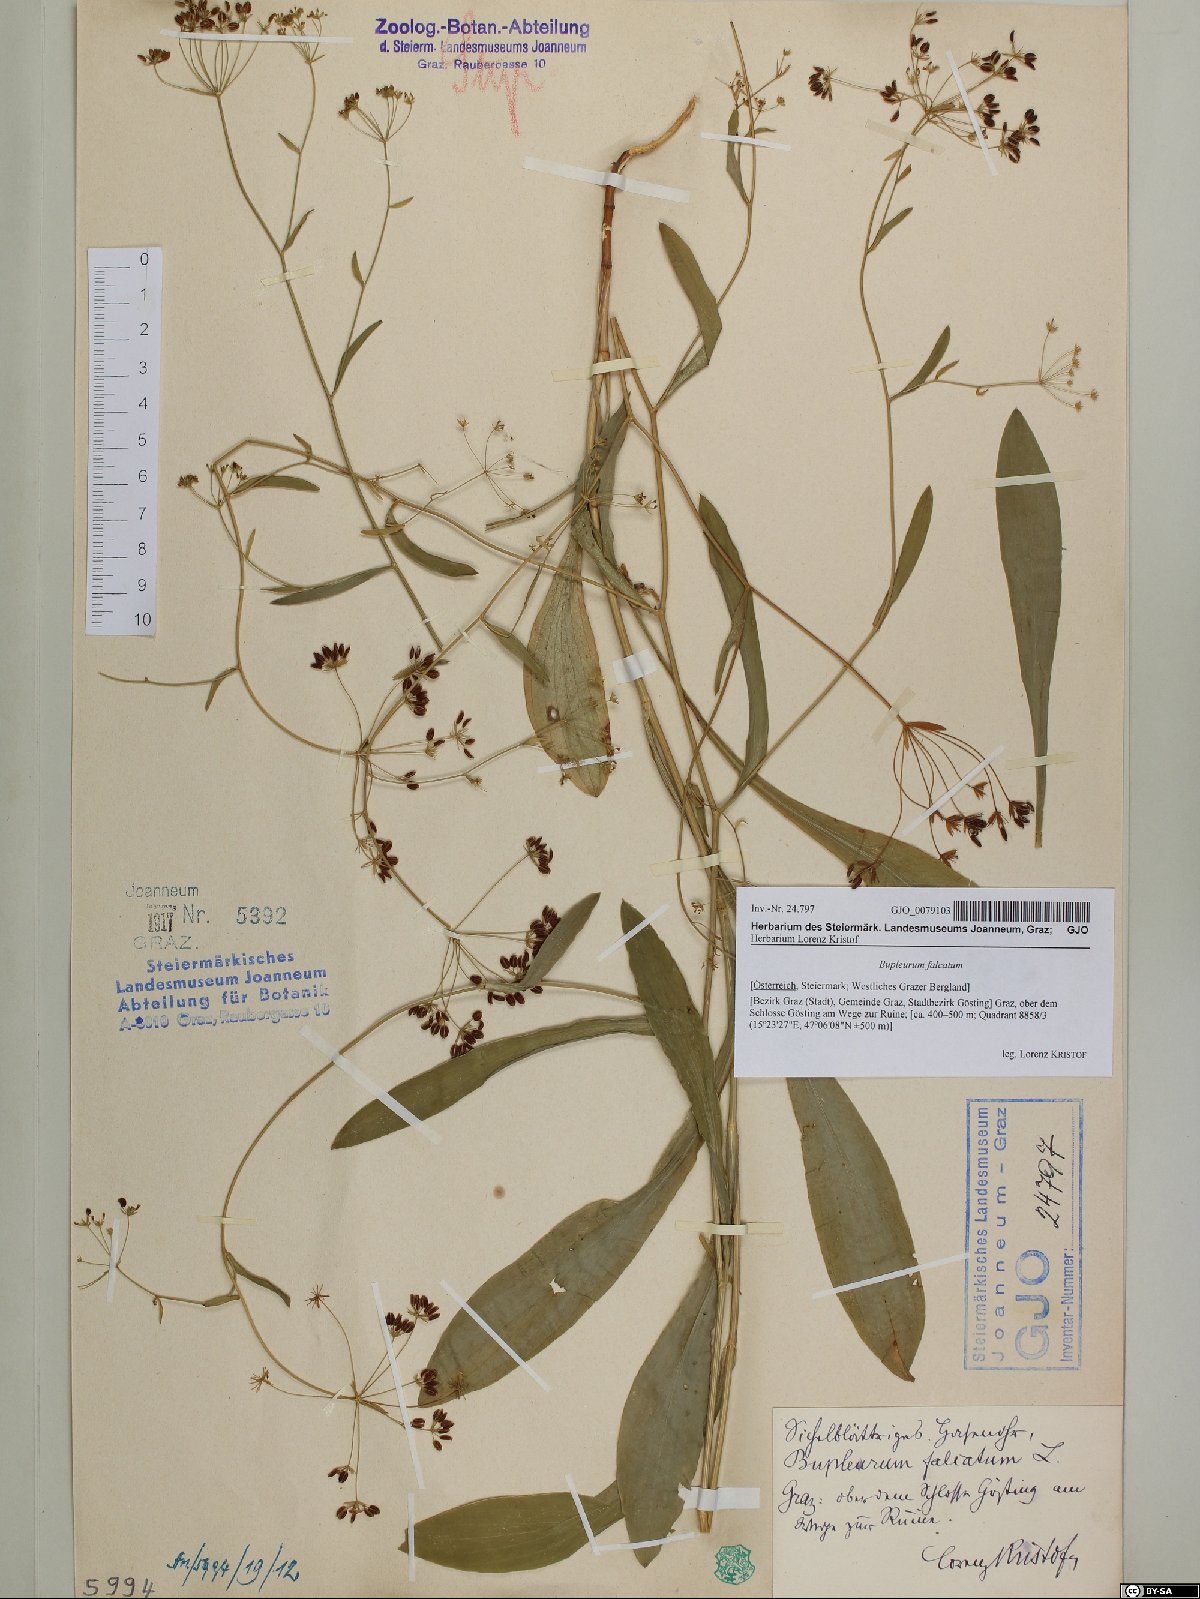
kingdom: Plantae
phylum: Tracheophyta
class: Magnoliopsida
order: Apiales
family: Apiaceae
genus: Bupleurum
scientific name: Bupleurum falcatum
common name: Sickle-leaved hare's-ear
